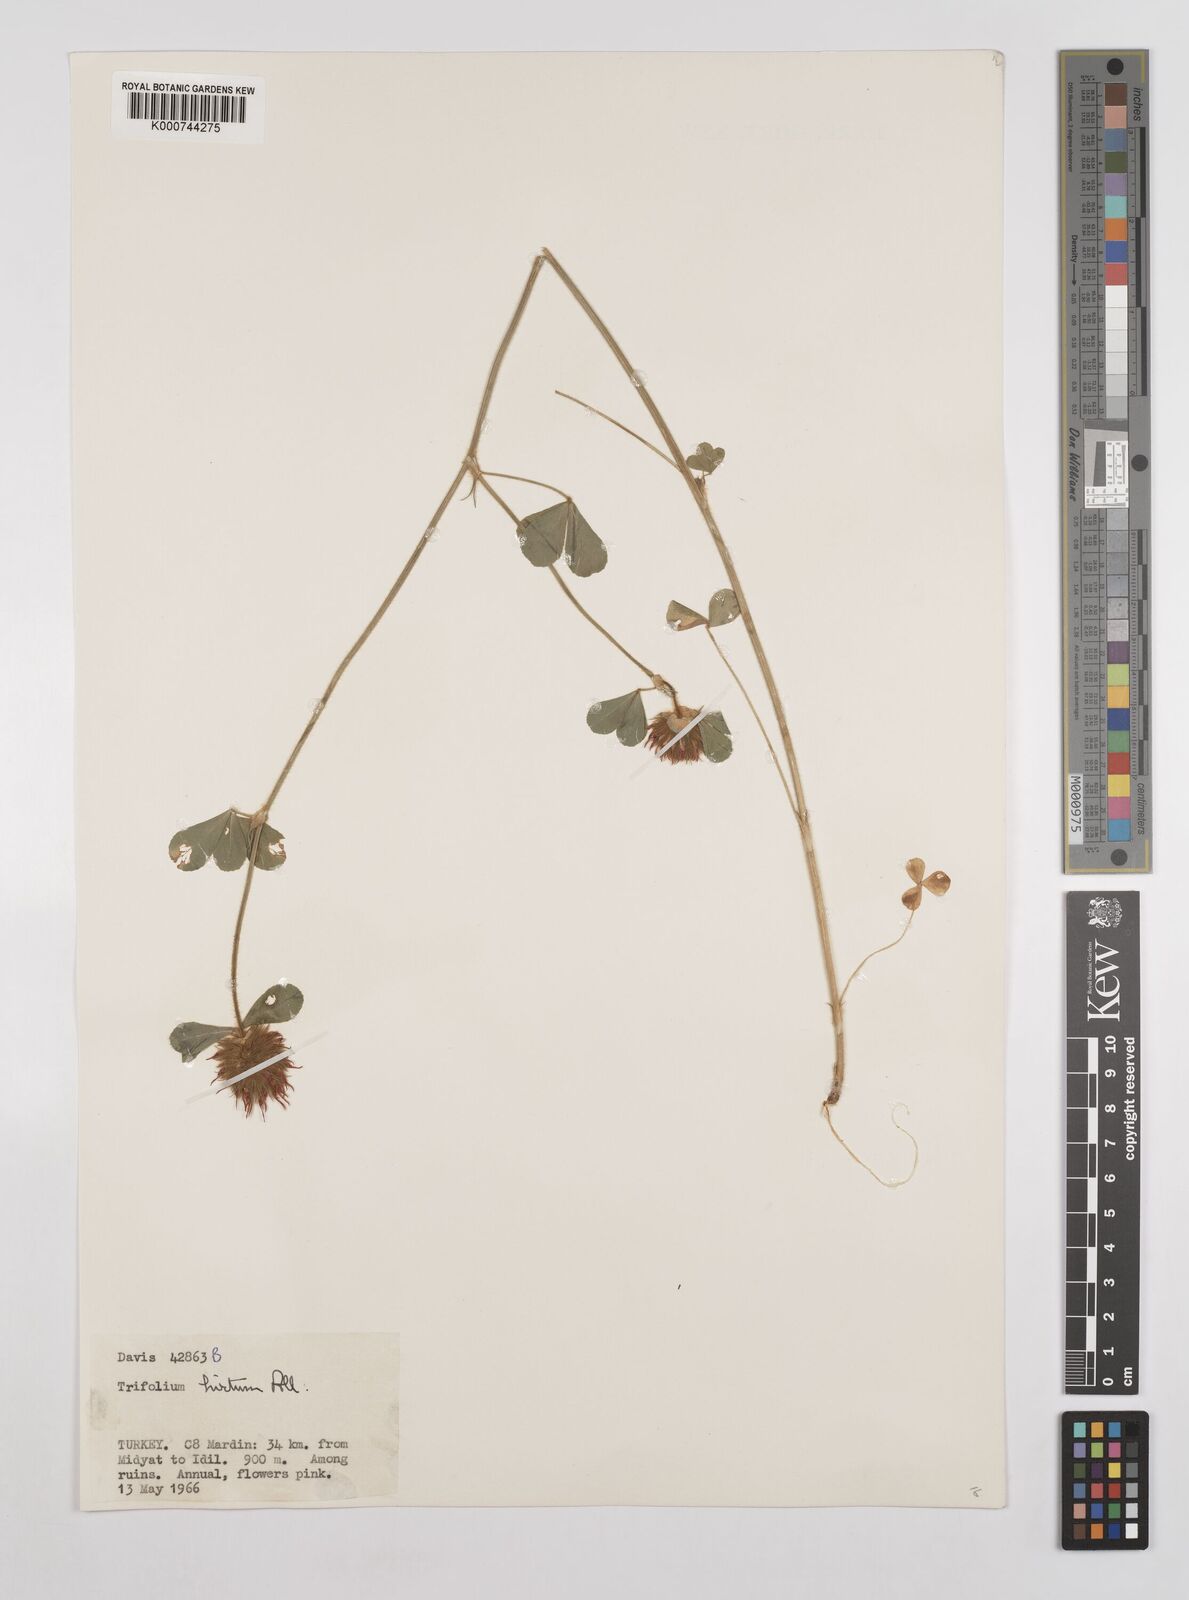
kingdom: Plantae
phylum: Tracheophyta
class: Magnoliopsida
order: Fabales
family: Fabaceae
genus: Trifolium
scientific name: Trifolium hirtum
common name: Rose clover
